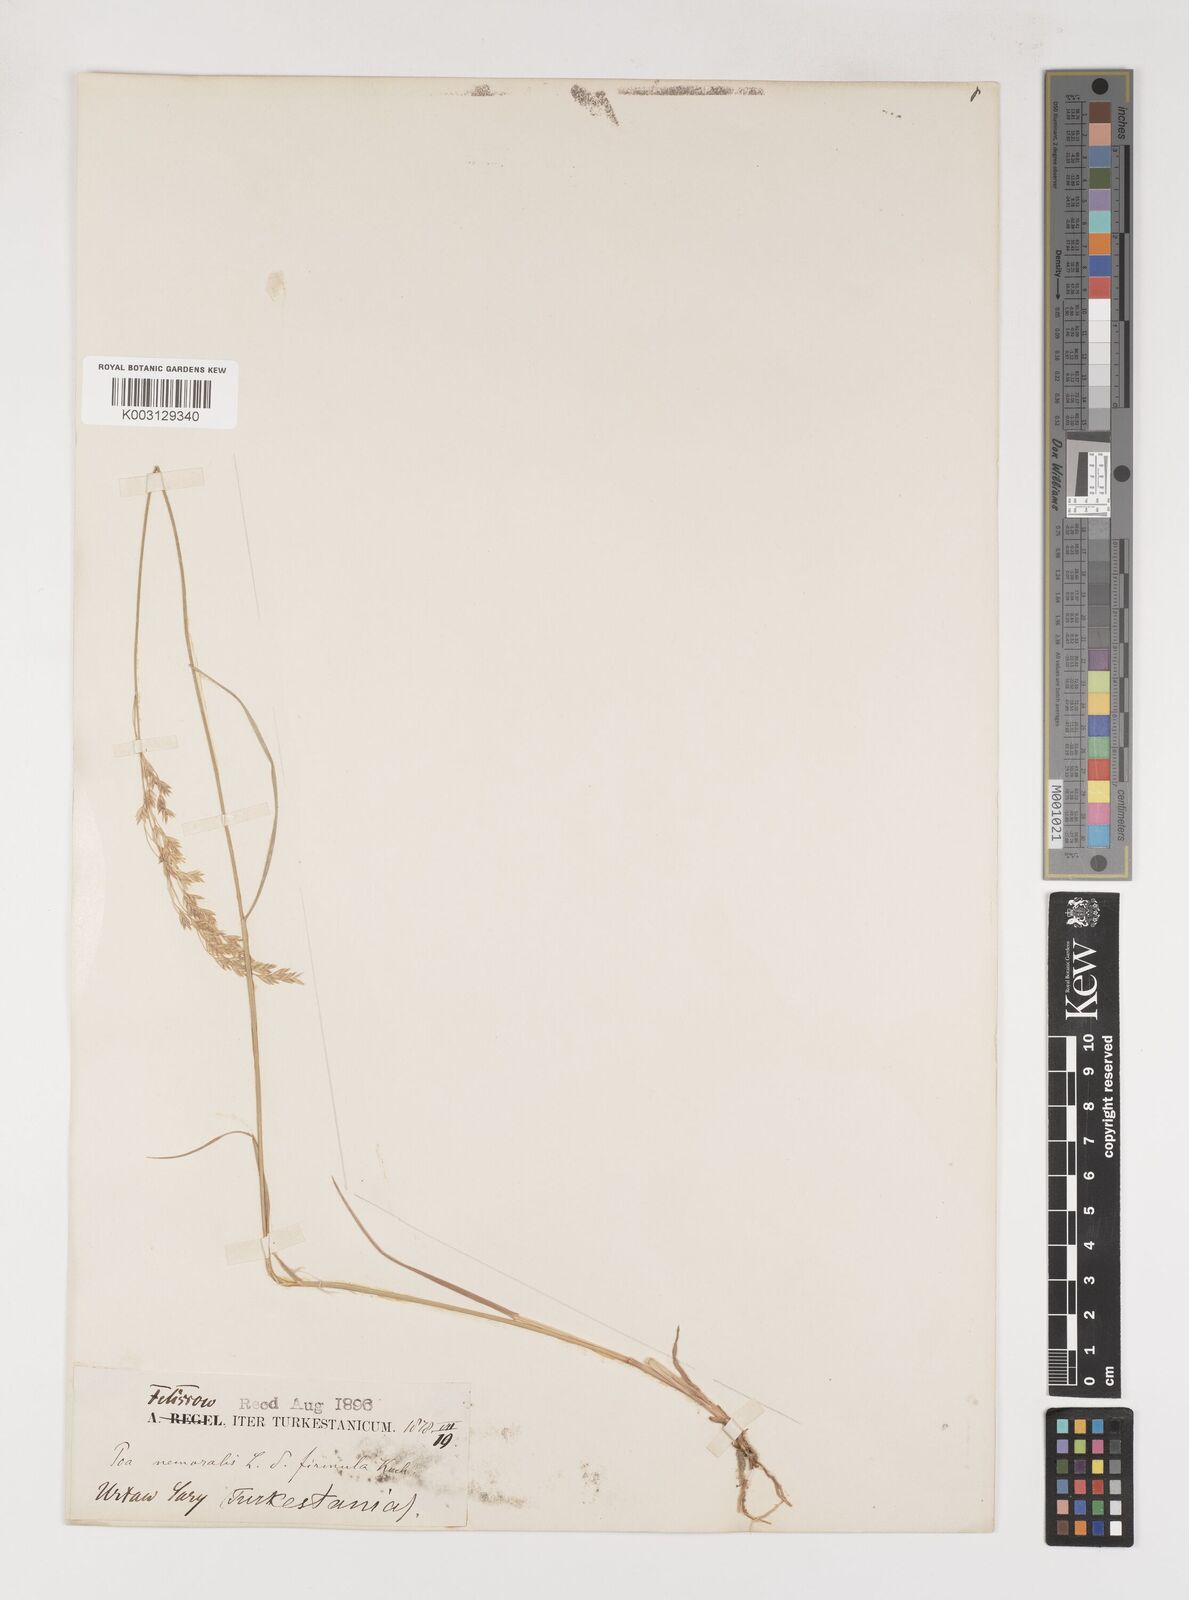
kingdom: Plantae
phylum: Tracheophyta
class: Liliopsida
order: Poales
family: Poaceae
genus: Poa
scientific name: Poa nemoralis
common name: Wood bluegrass
